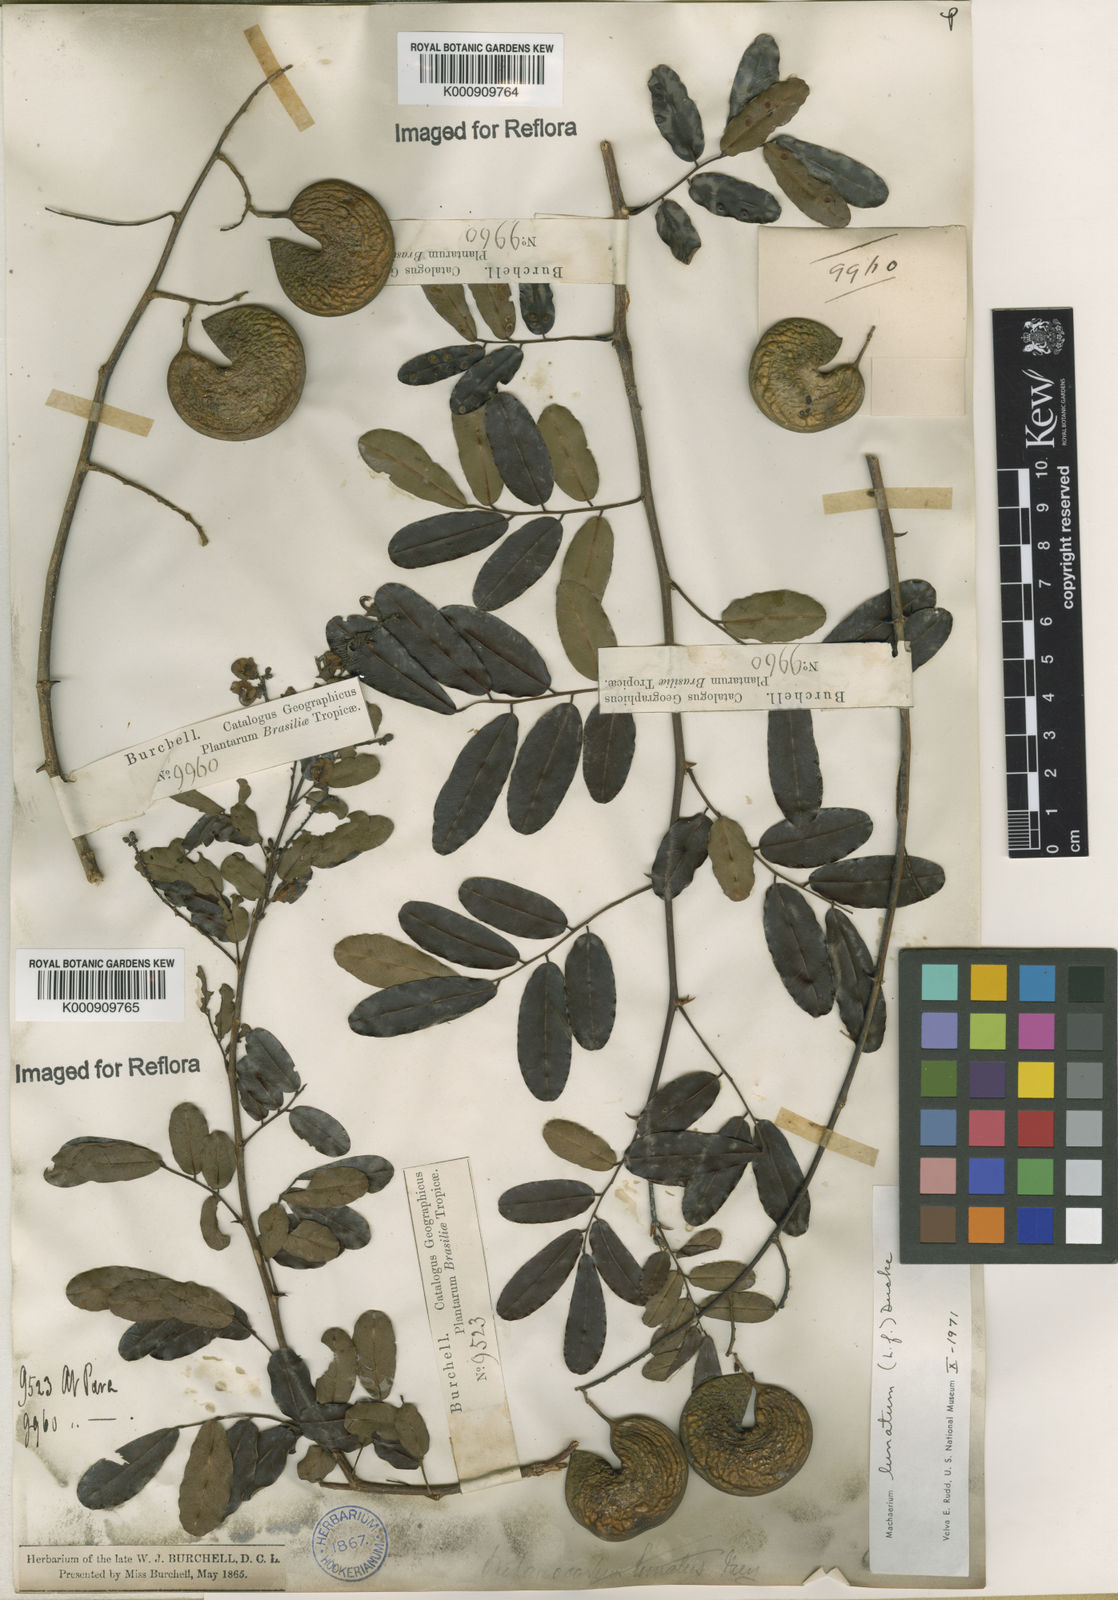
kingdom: Plantae
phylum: Tracheophyta
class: Magnoliopsida
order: Fabales
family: Fabaceae
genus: Machaerium
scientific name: Machaerium lunatum
